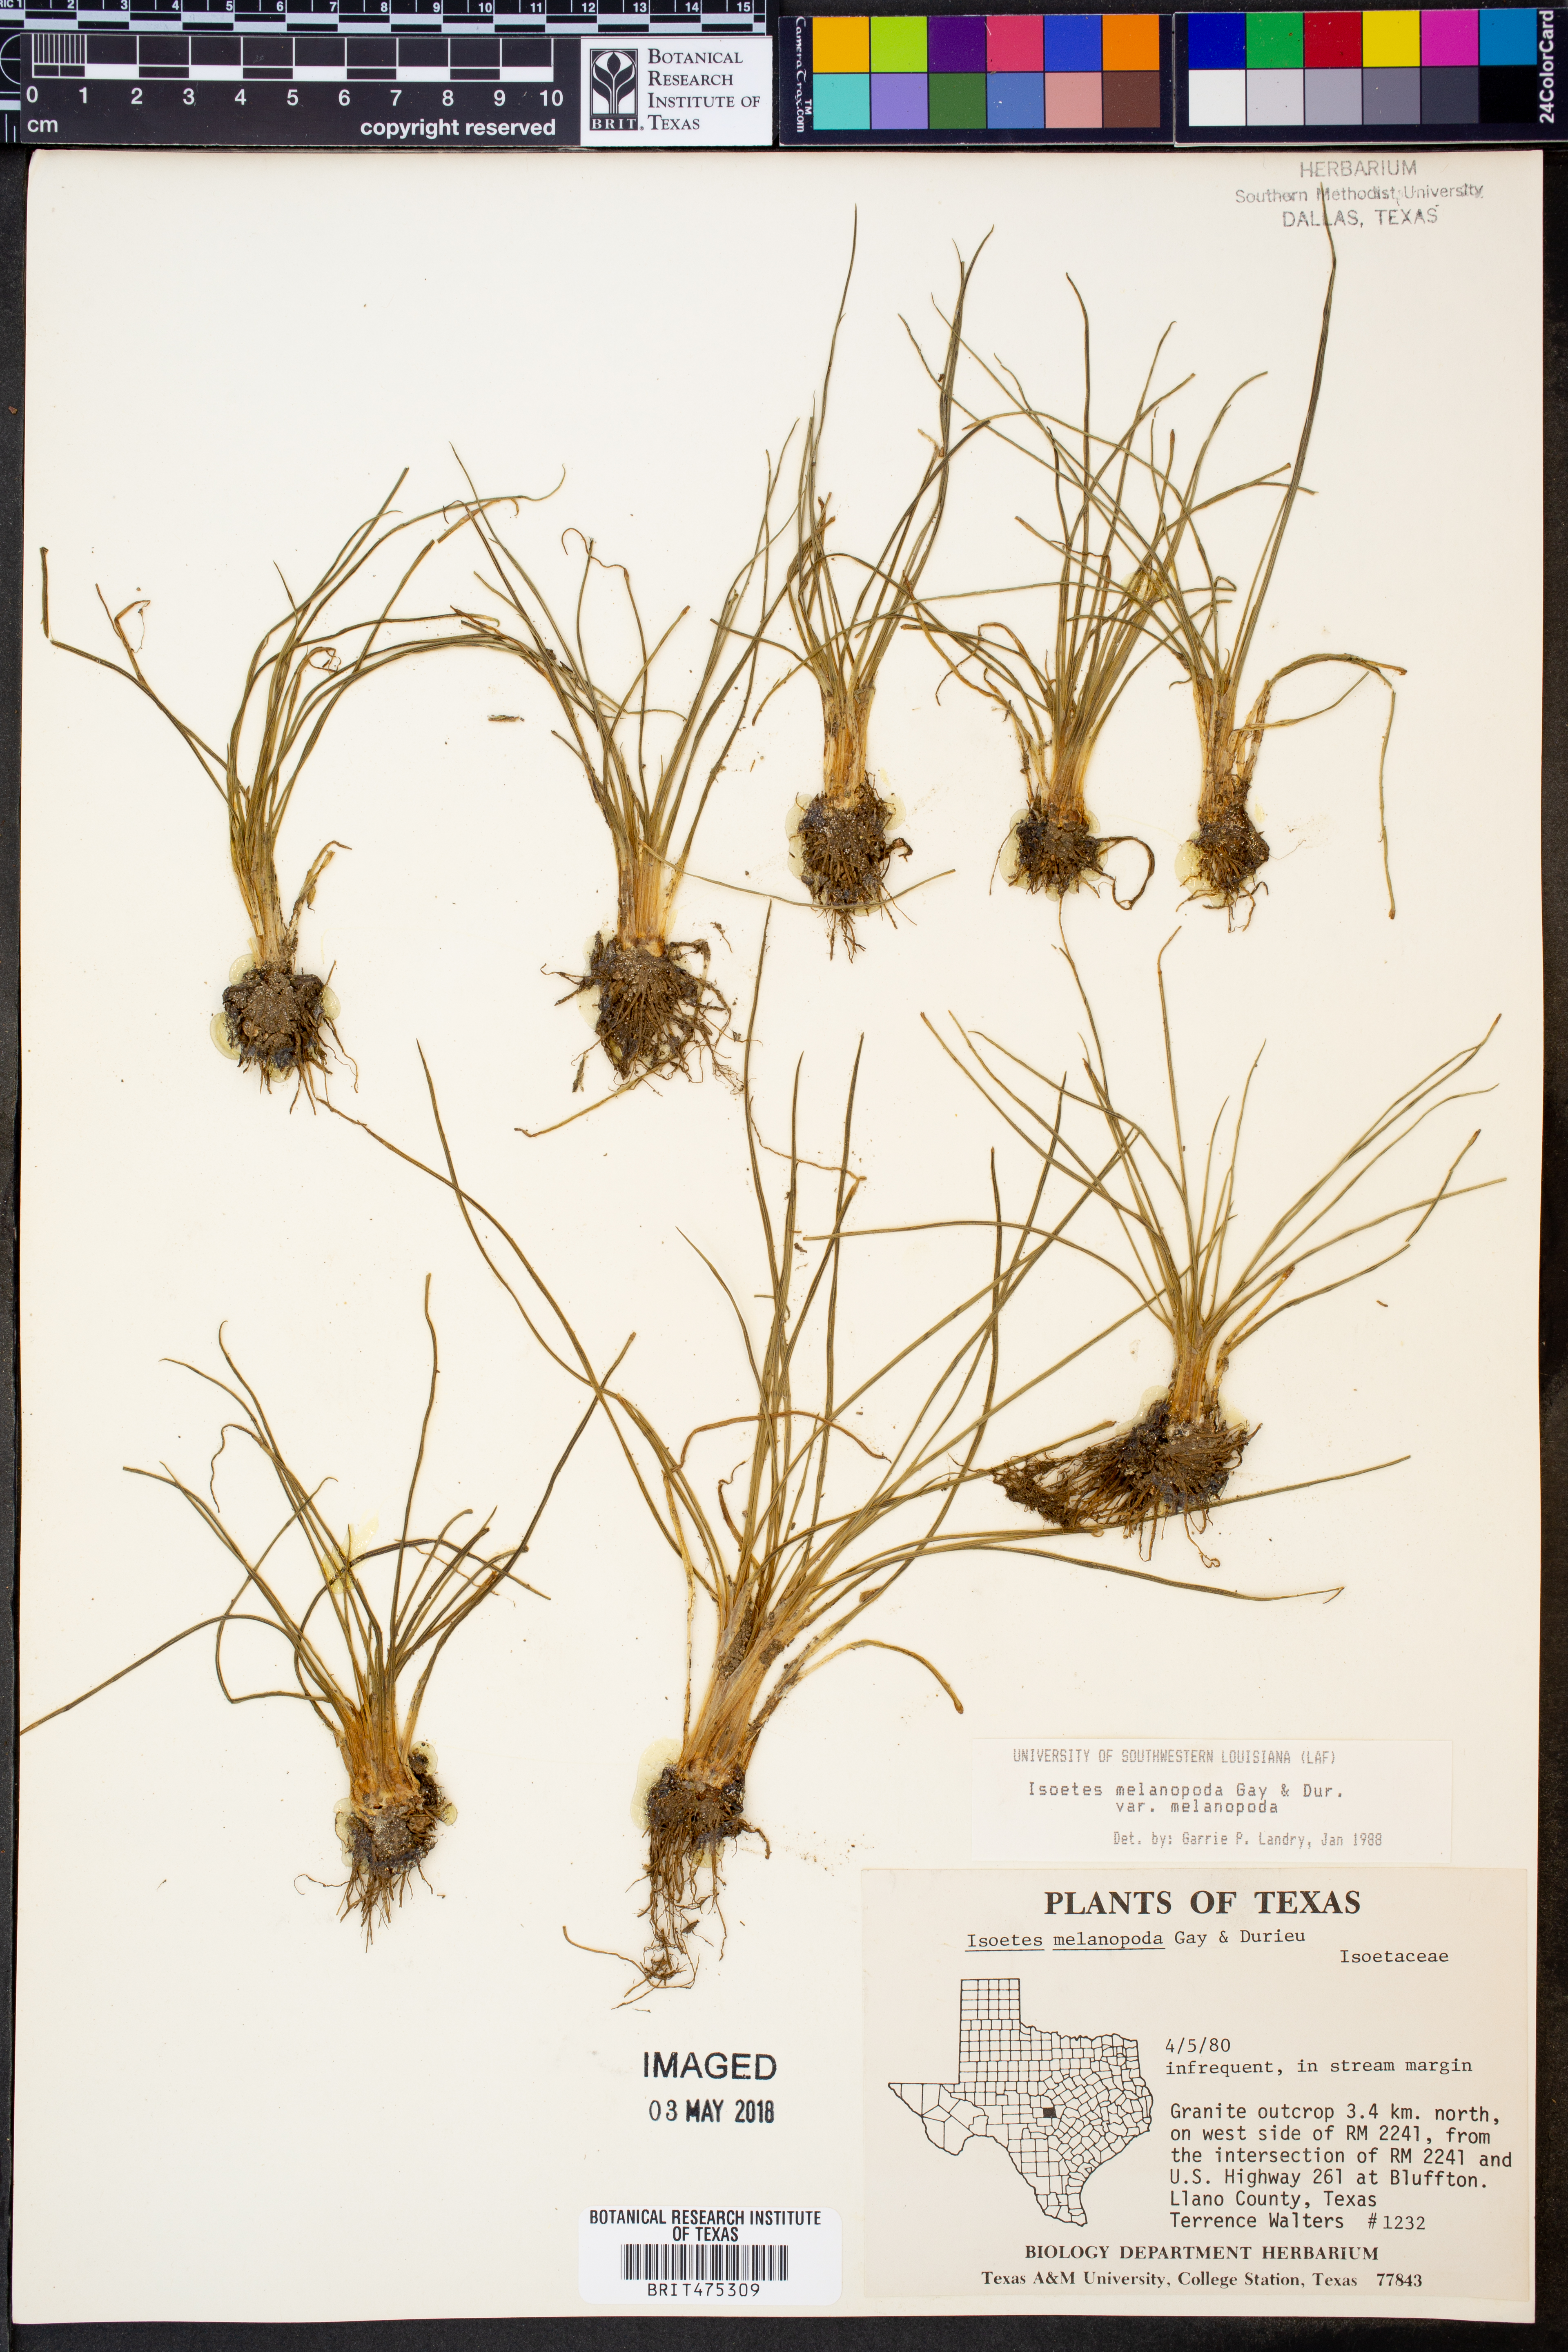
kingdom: Plantae
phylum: Tracheophyta
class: Lycopodiopsida
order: Isoetales
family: Isoetaceae
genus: Isoetes
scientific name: Isoetes melanopoda
